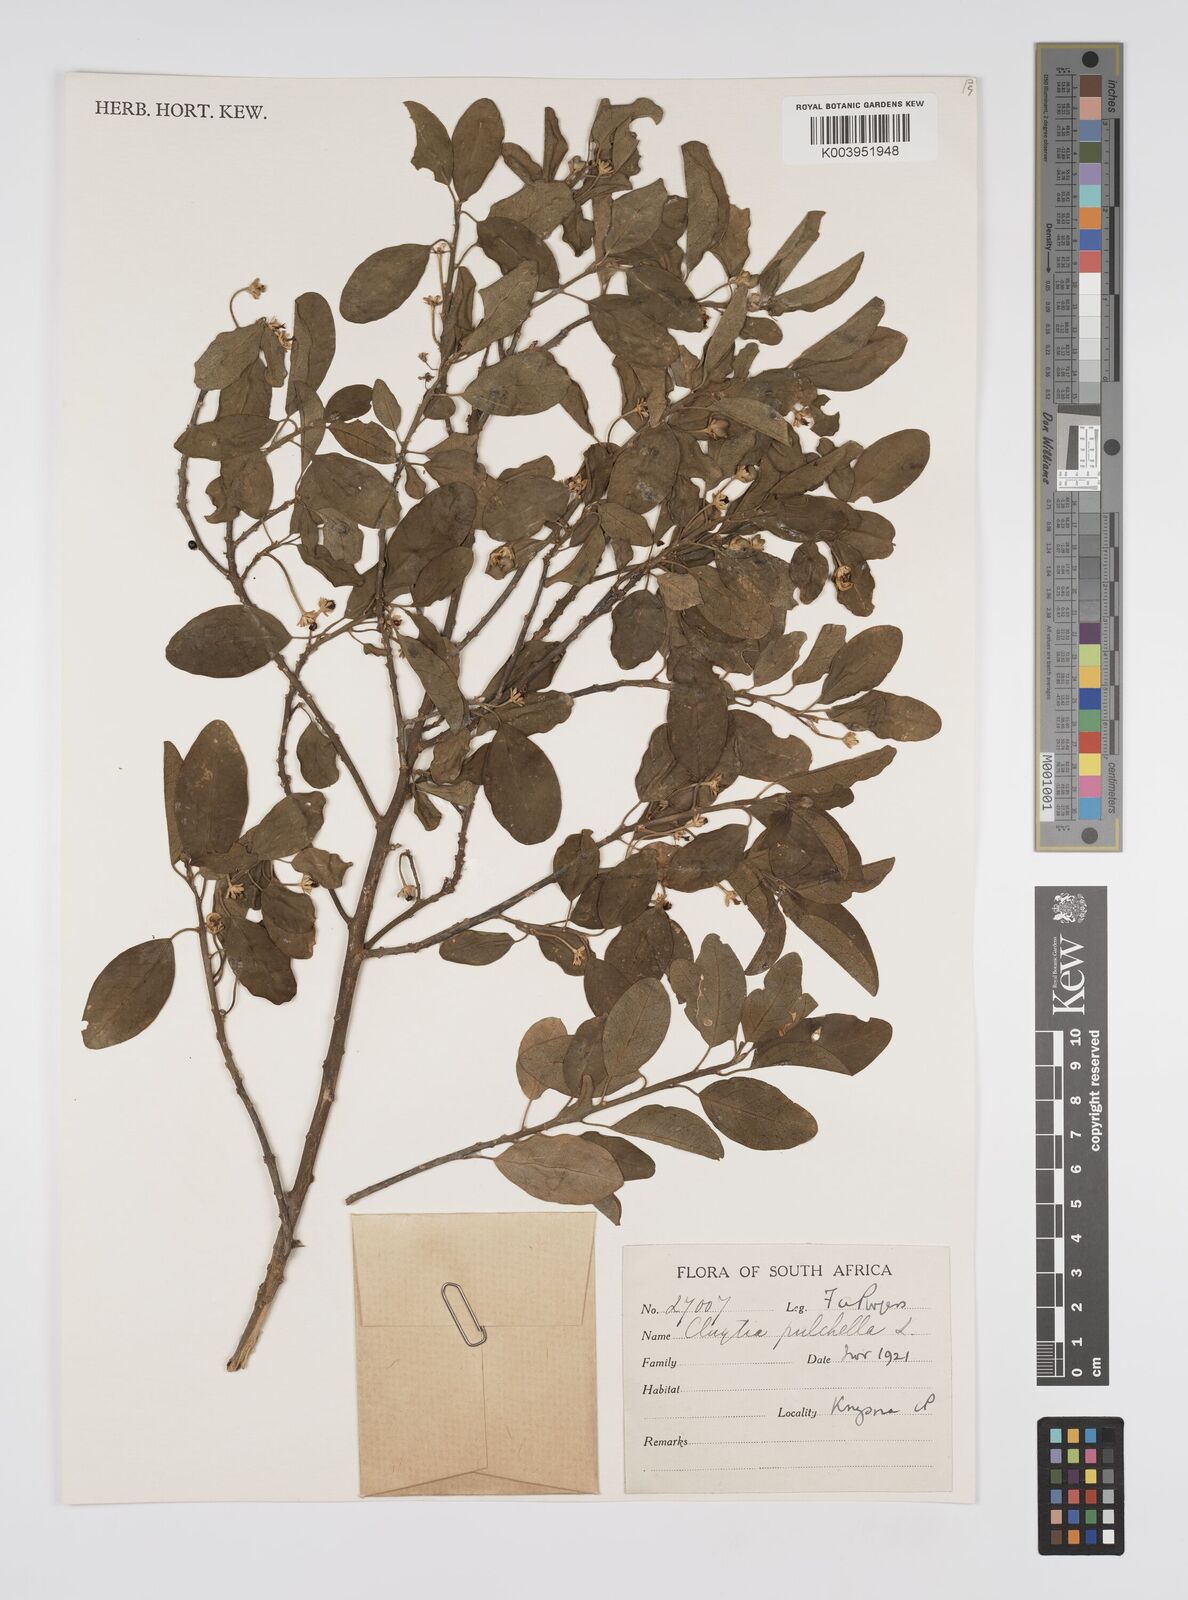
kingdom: Plantae
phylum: Tracheophyta
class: Magnoliopsida
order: Malpighiales
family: Peraceae
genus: Clutia
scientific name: Clutia pulchella
